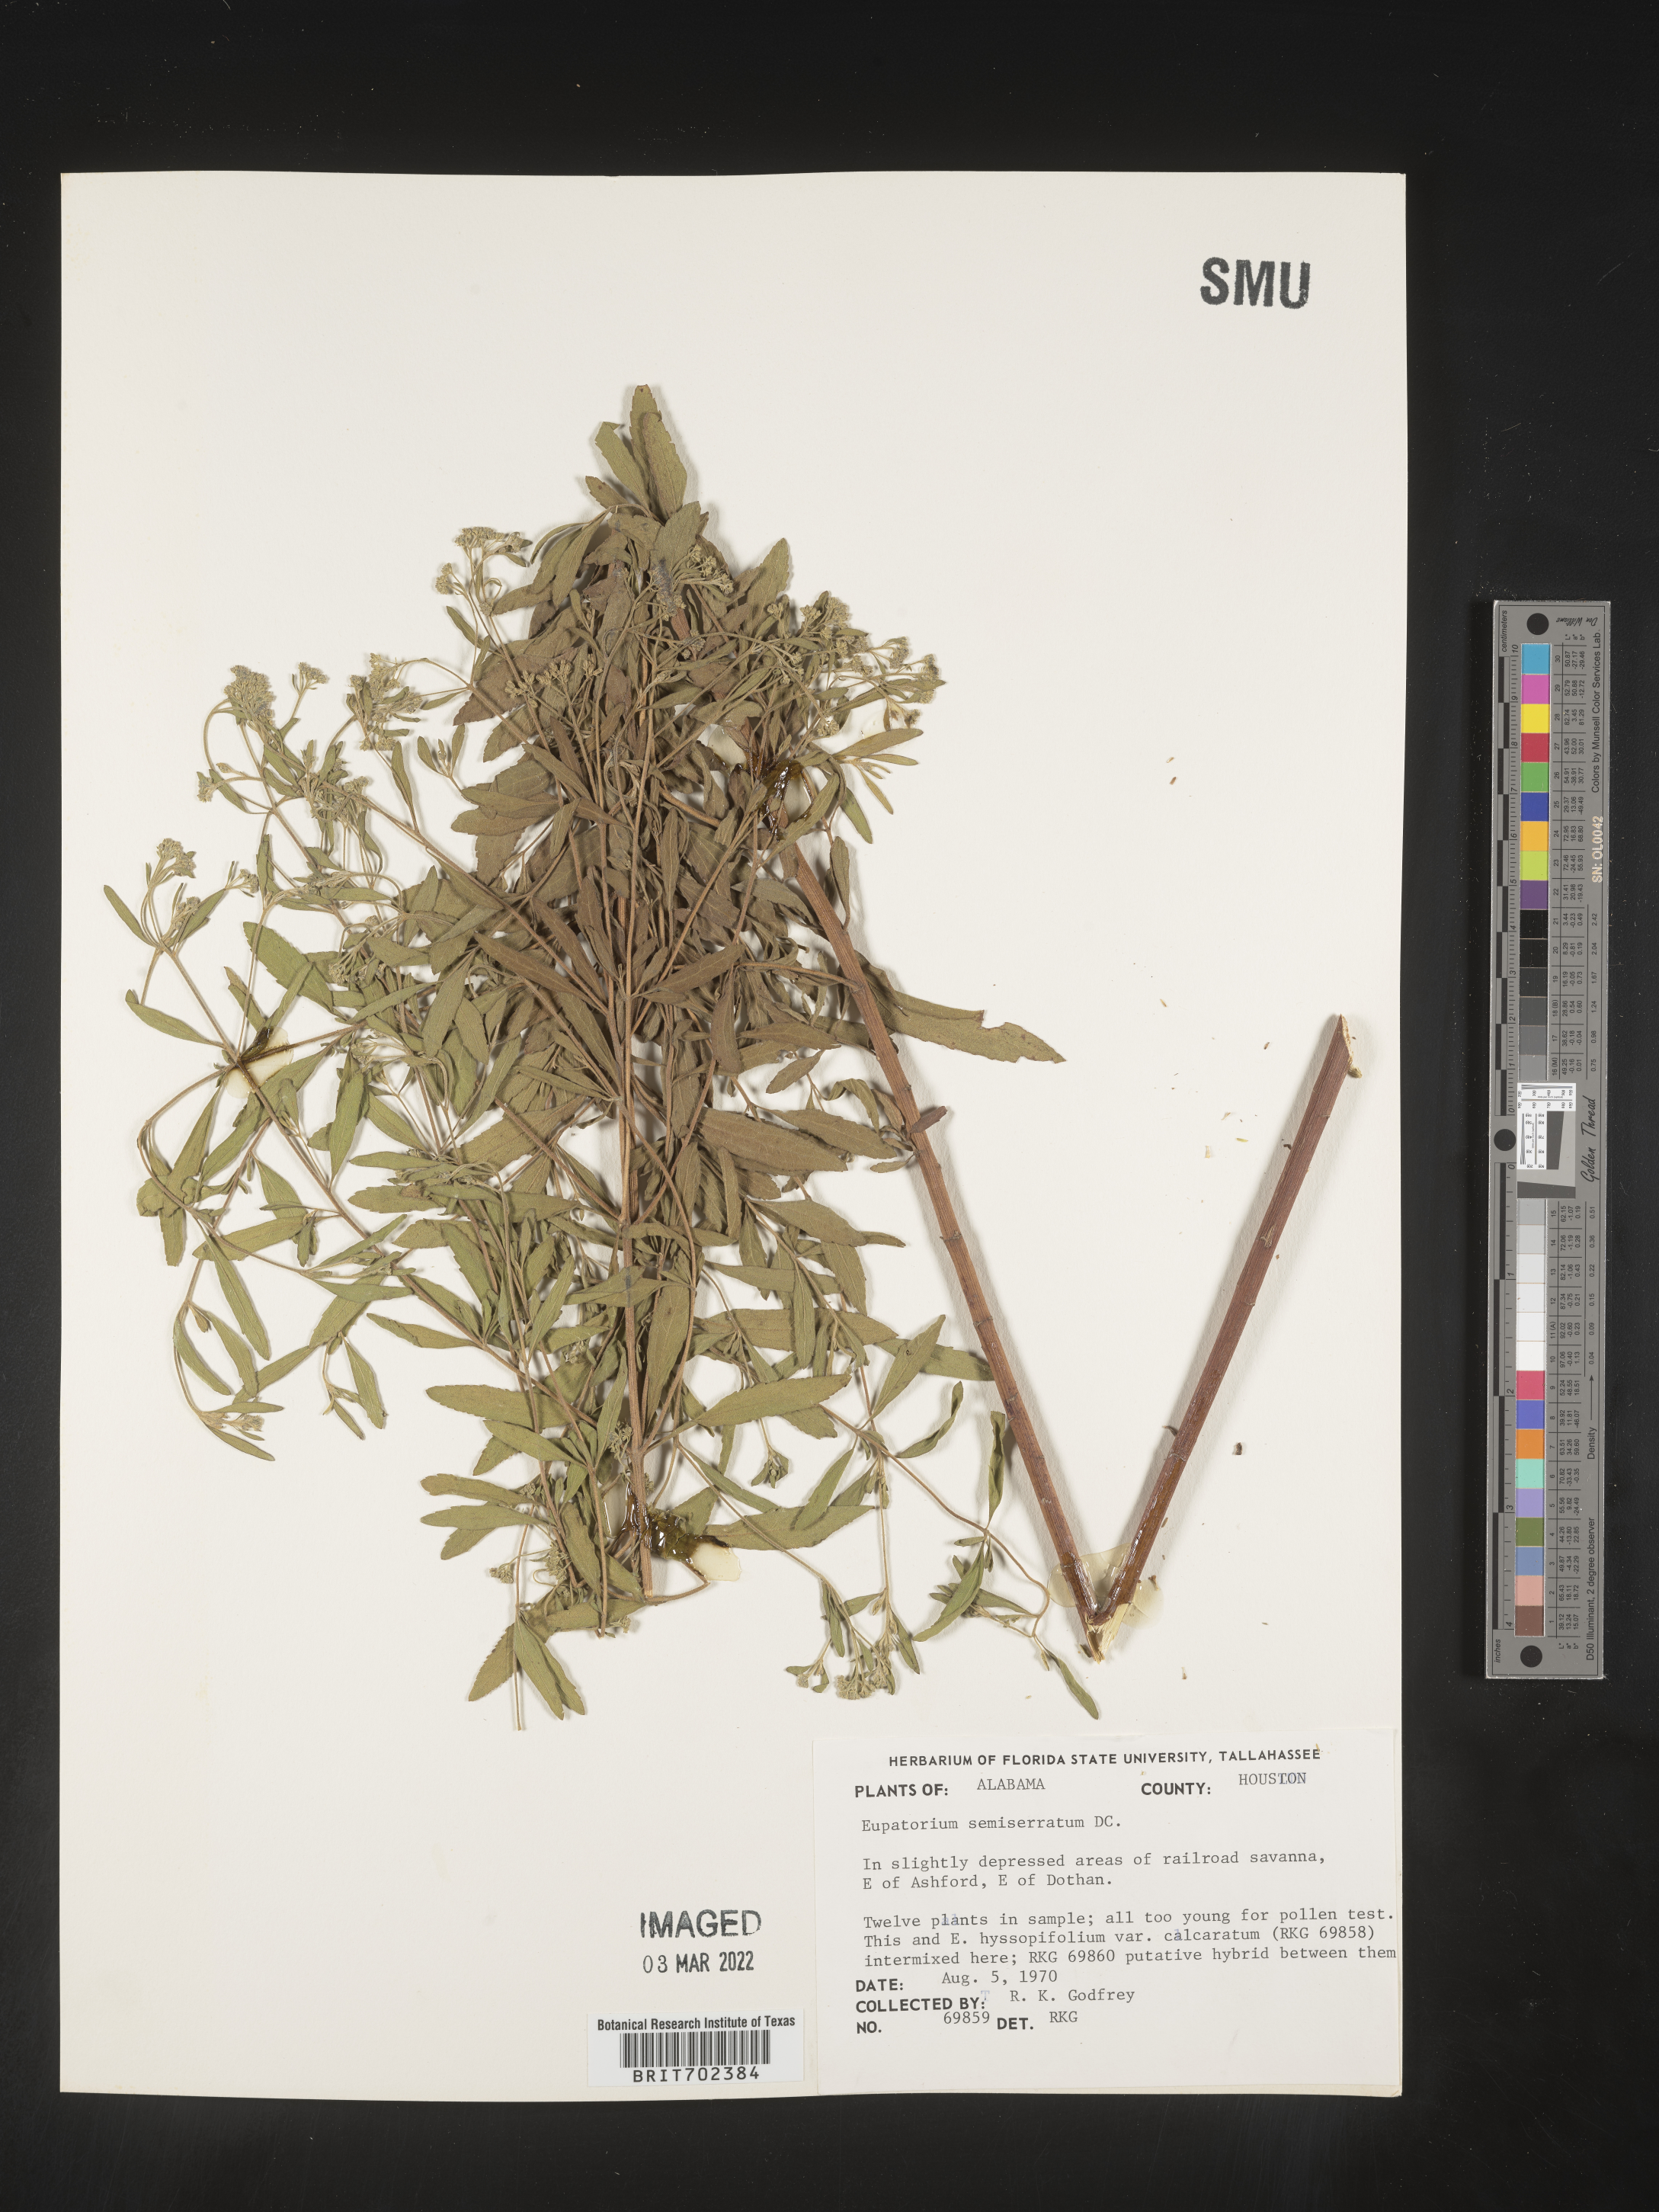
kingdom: Plantae
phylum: Tracheophyta
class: Magnoliopsida
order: Asterales
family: Asteraceae
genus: Eupatorium
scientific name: Eupatorium semiserratum
